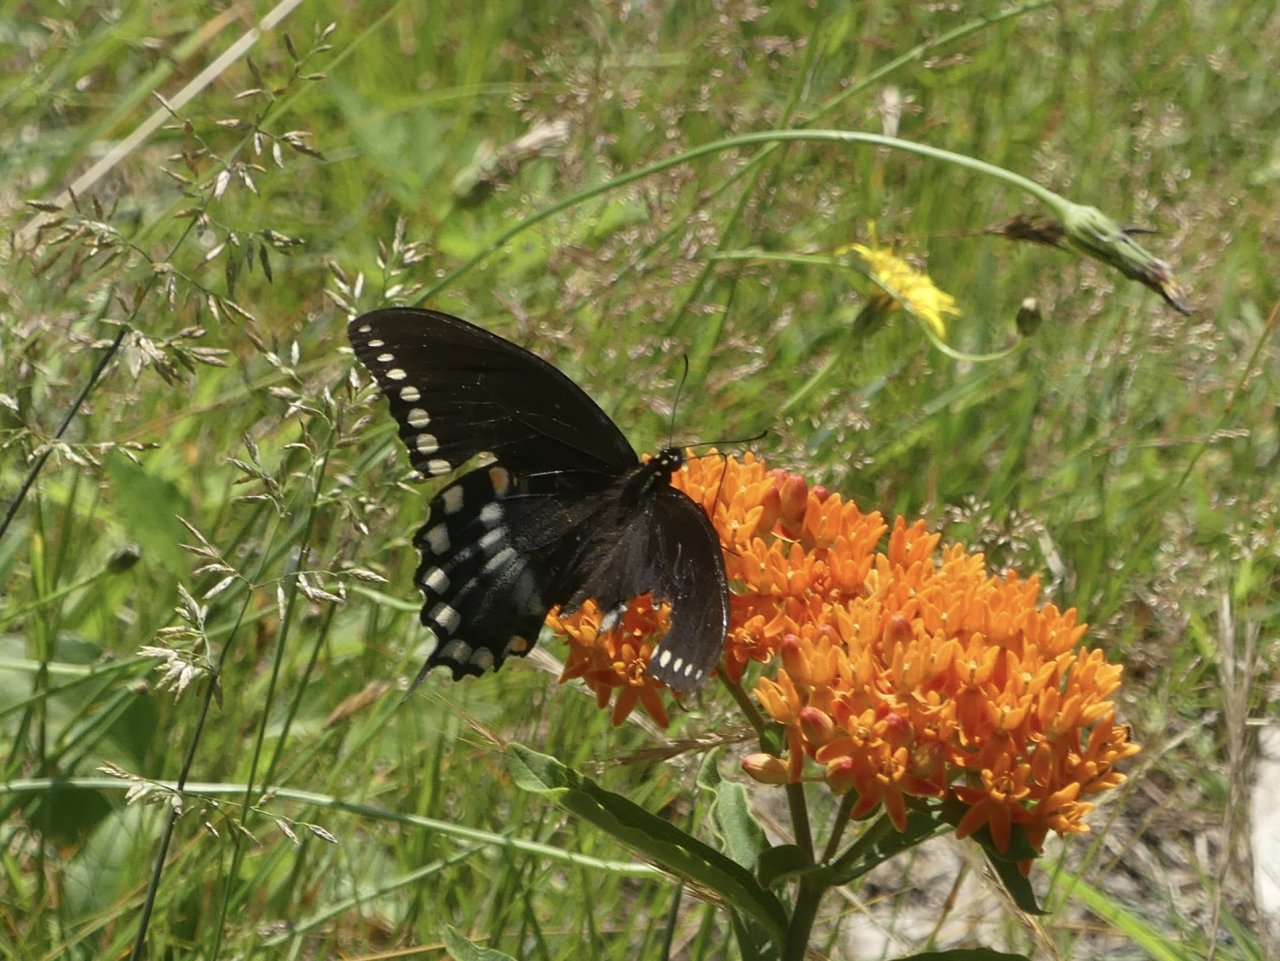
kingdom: Animalia
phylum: Arthropoda
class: Insecta
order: Lepidoptera
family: Papilionidae
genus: Pterourus
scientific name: Pterourus troilus
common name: Spicebush Swallowtail
